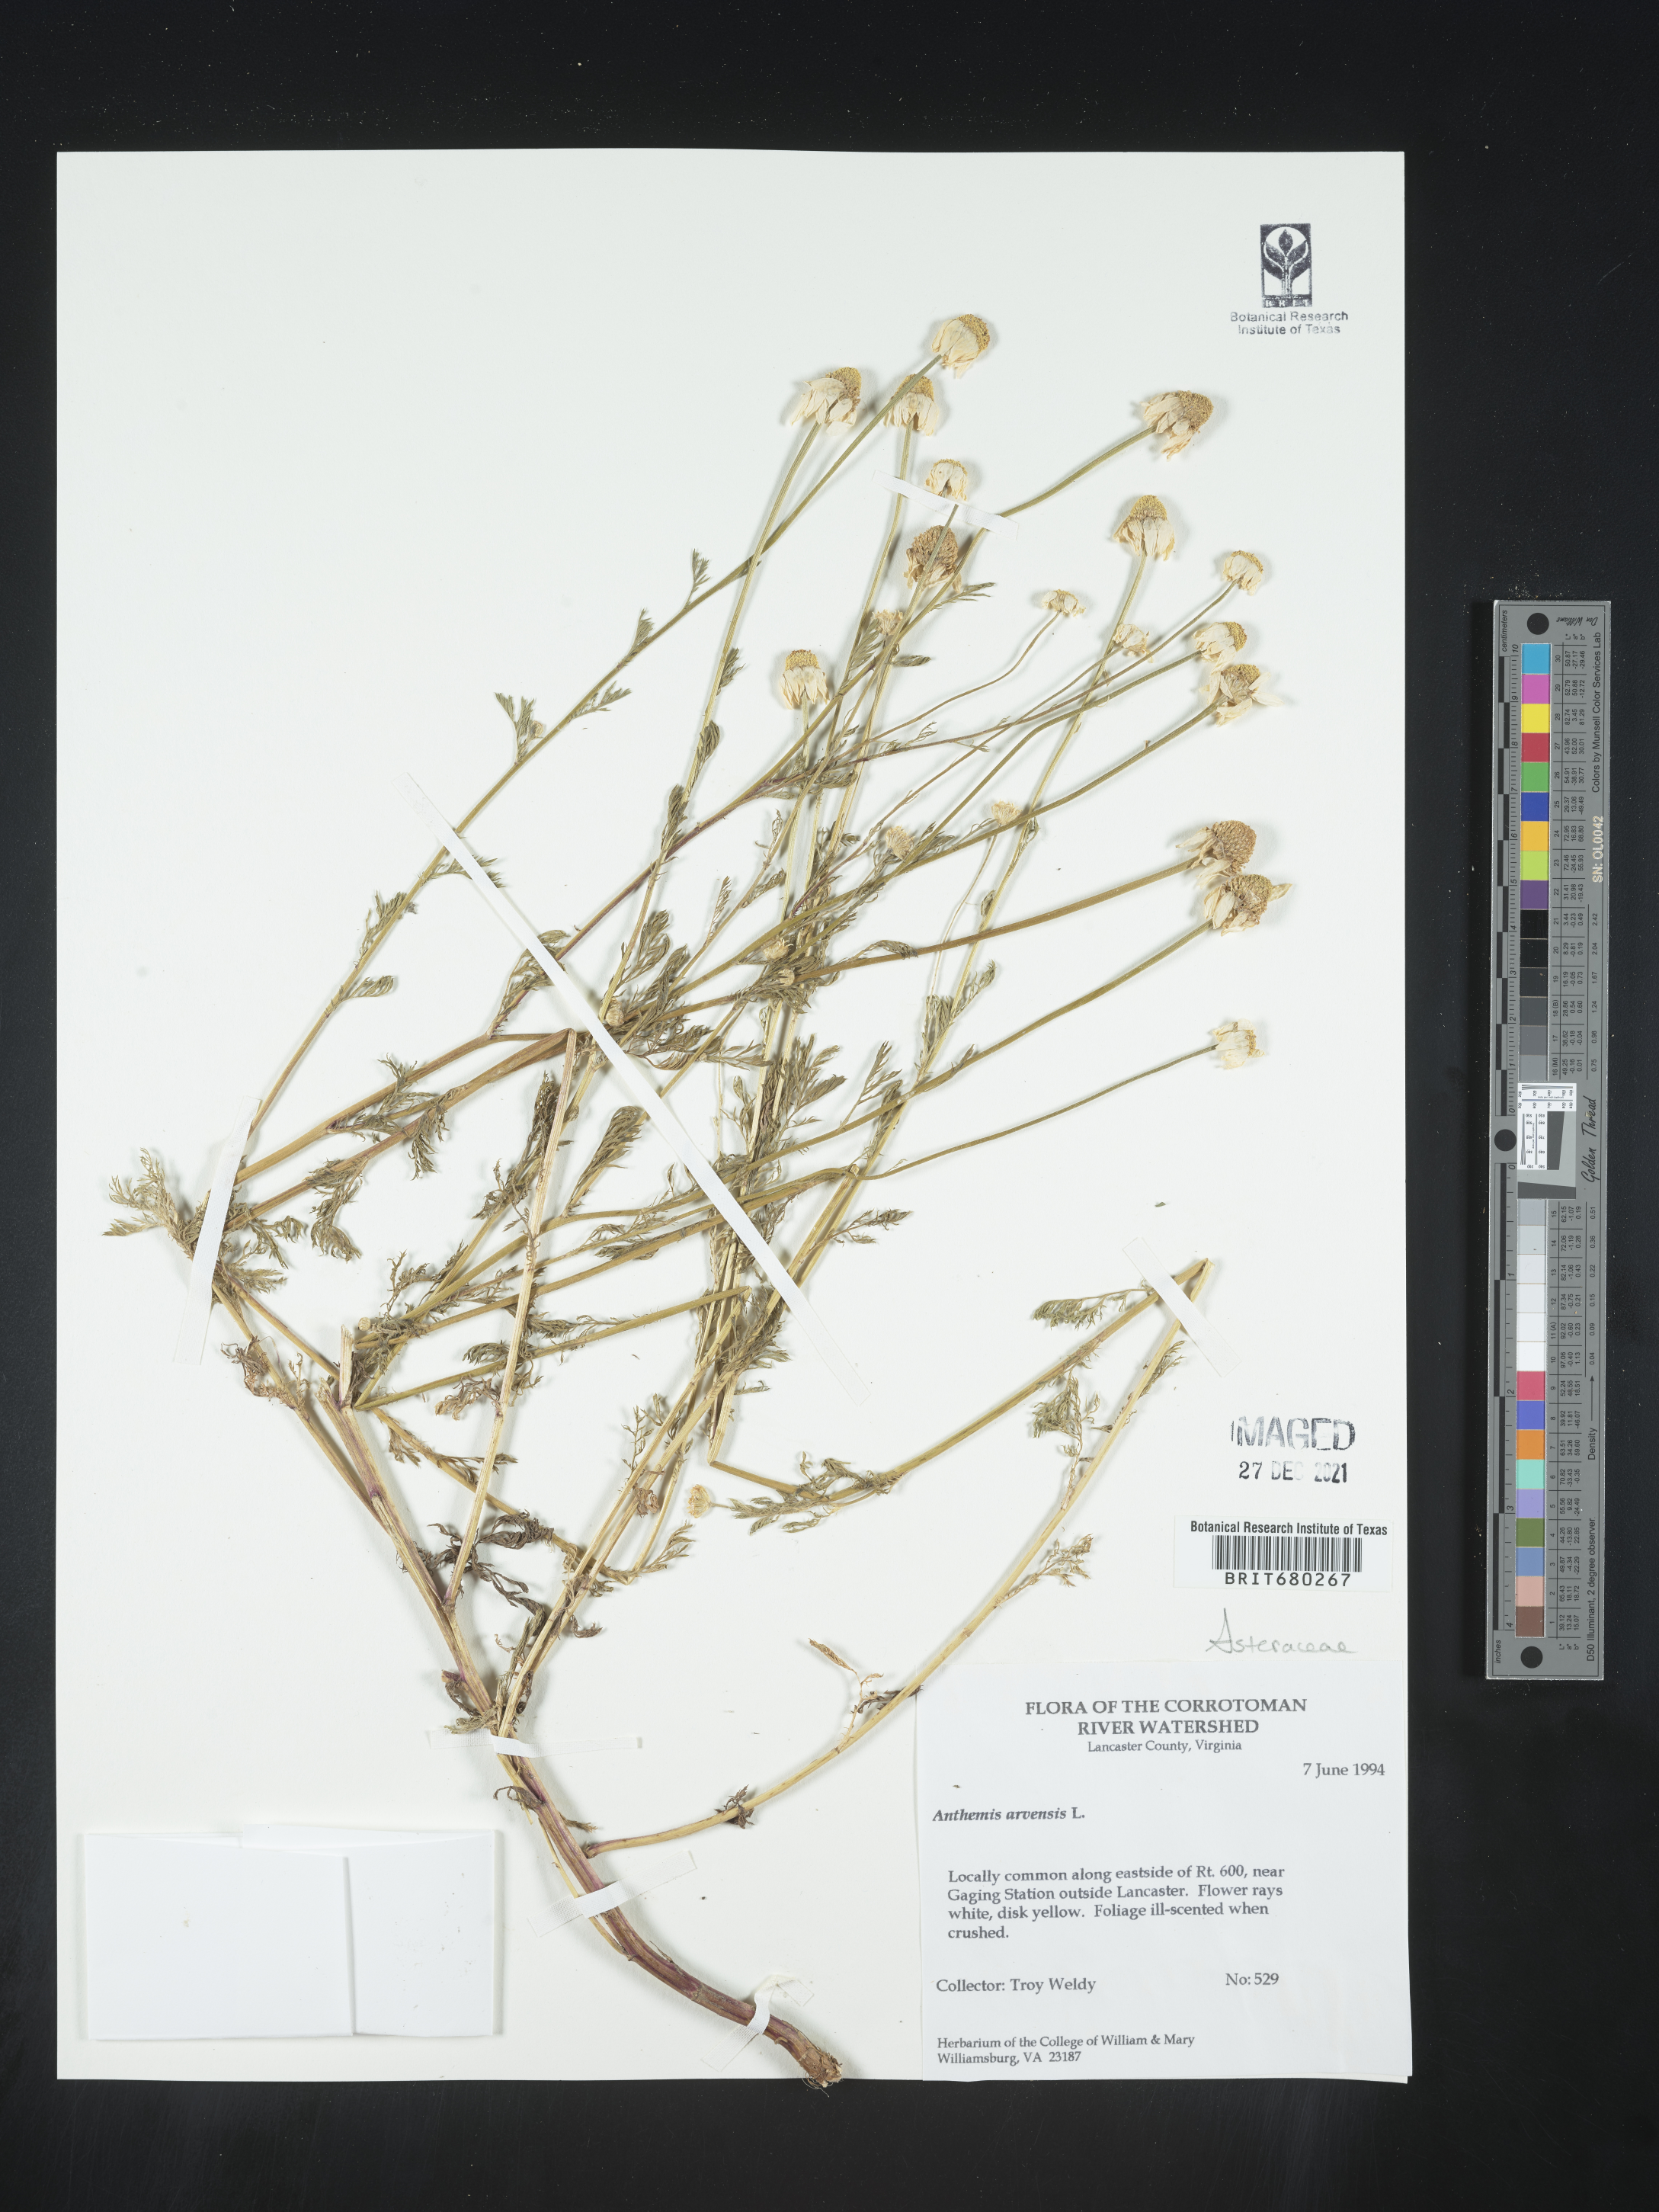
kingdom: Plantae
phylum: Tracheophyta
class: Magnoliopsida
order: Asterales
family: Asteraceae
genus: Anthemis
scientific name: Anthemis arvensis
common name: Corn chamomile
